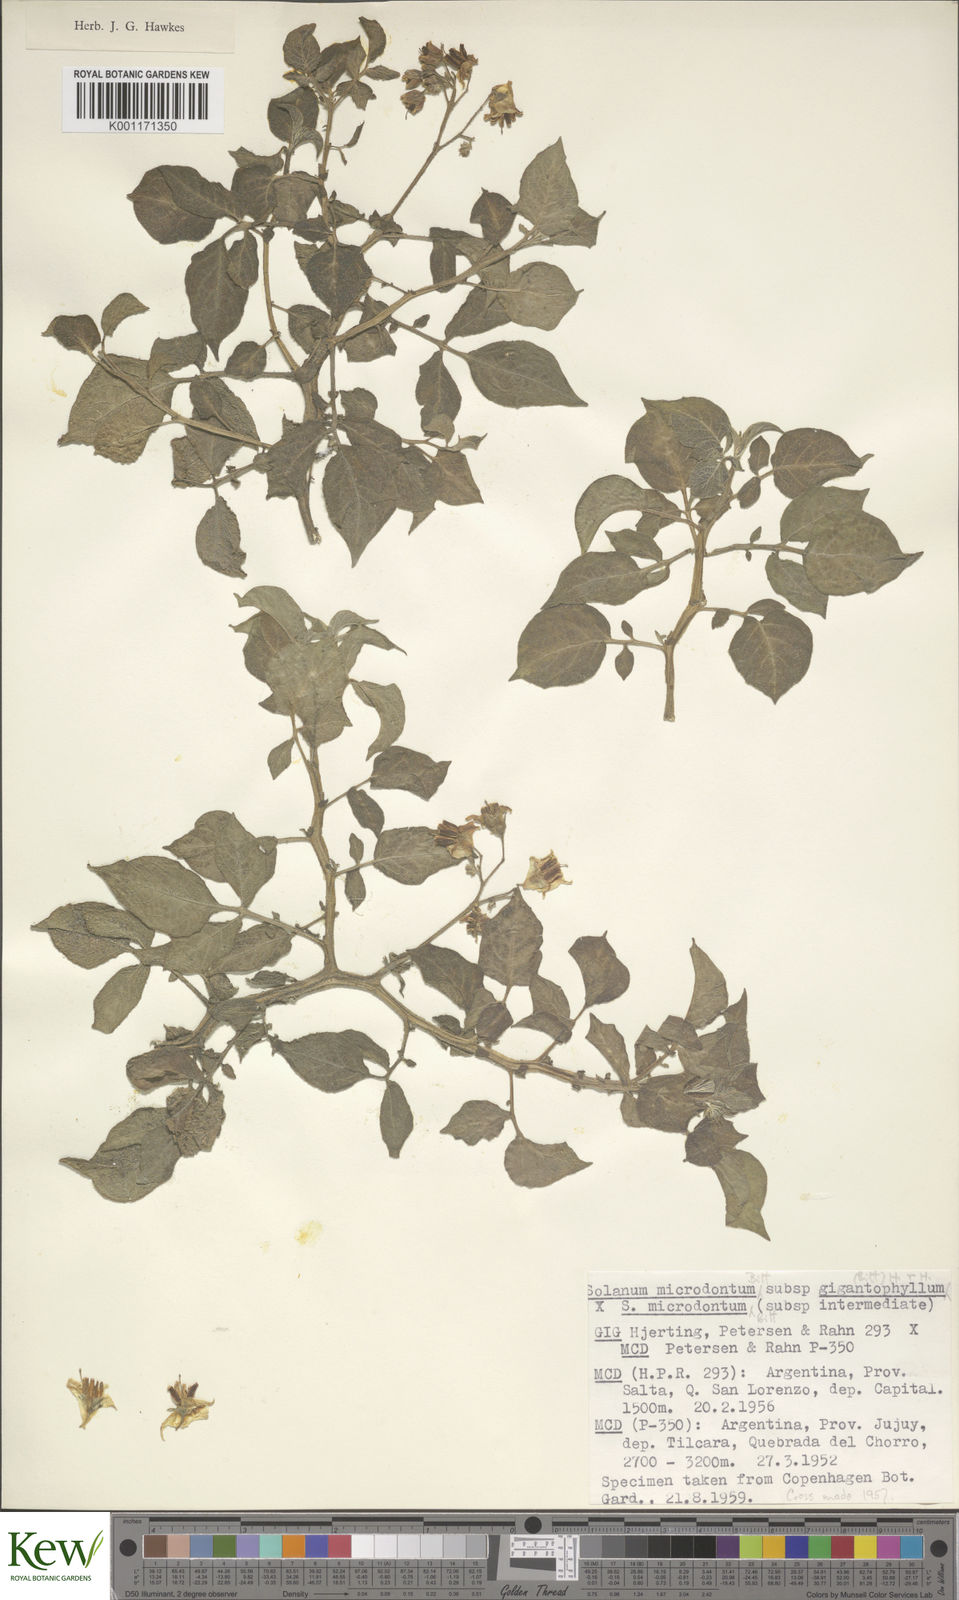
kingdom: Plantae
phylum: Tracheophyta
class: Magnoliopsida
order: Solanales
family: Solanaceae
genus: Solanum
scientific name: Solanum microdontum
